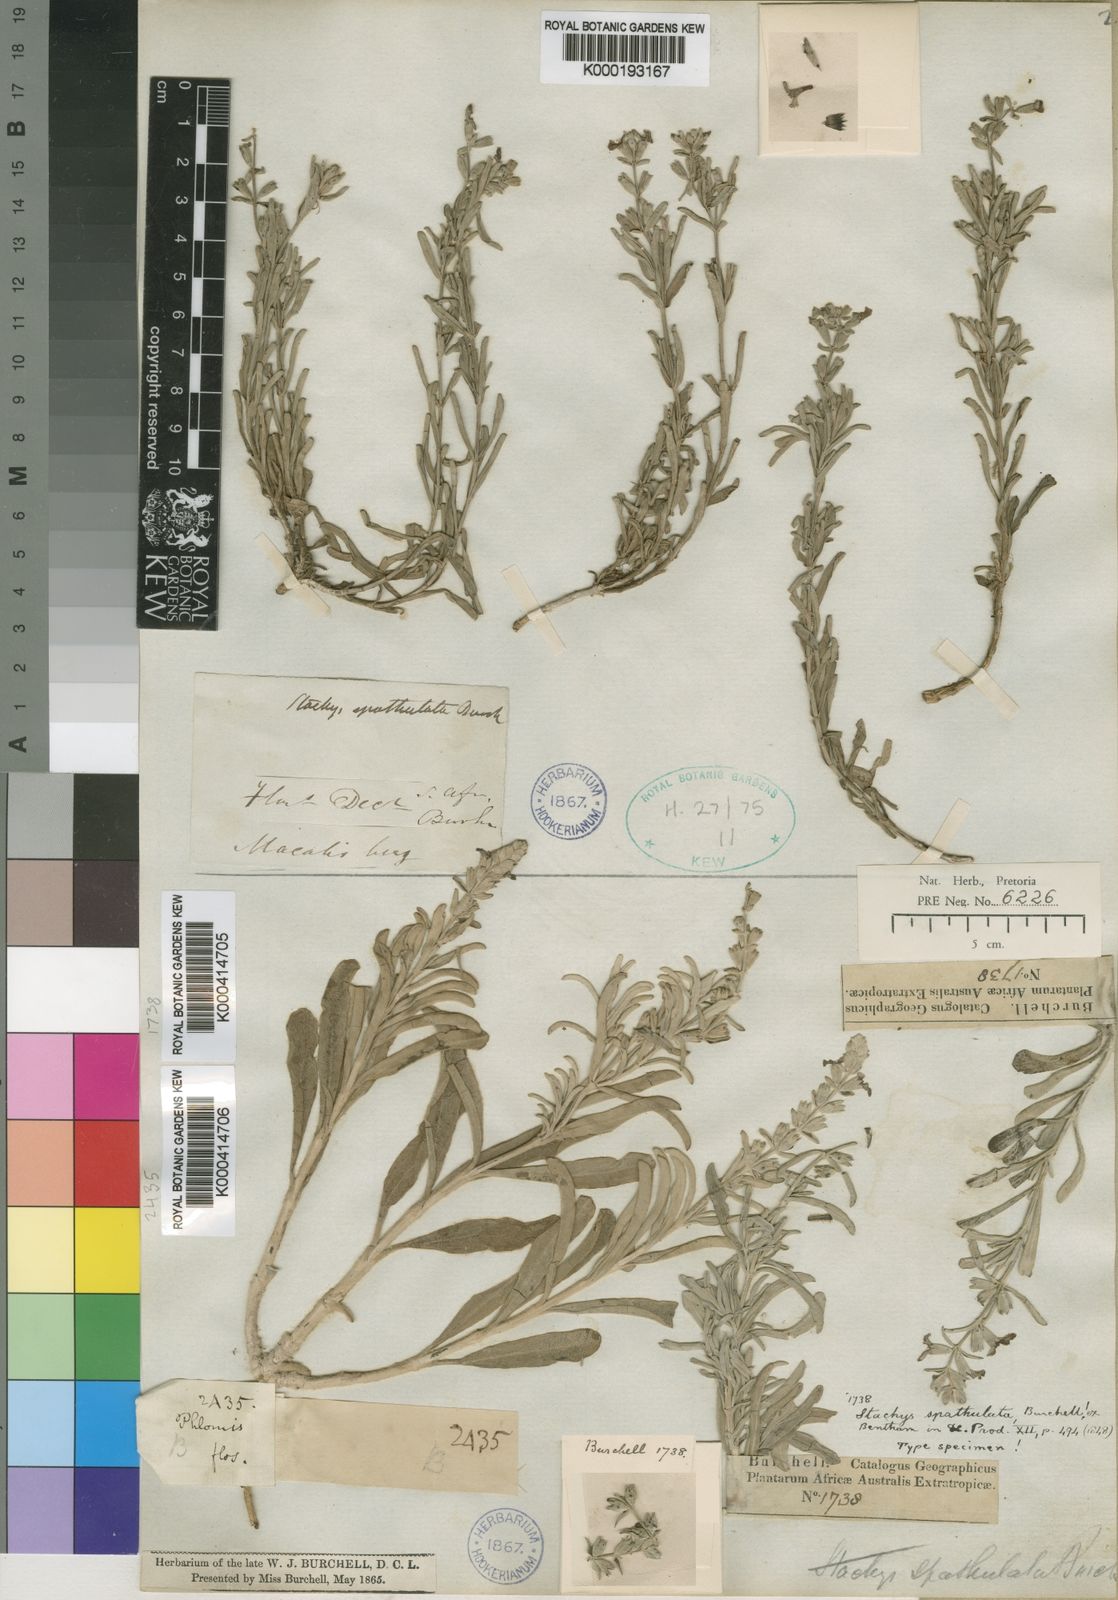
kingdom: Plantae
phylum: Tracheophyta
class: Magnoliopsida
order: Lamiales
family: Lamiaceae
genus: Stachys
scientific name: Stachys spathulata
